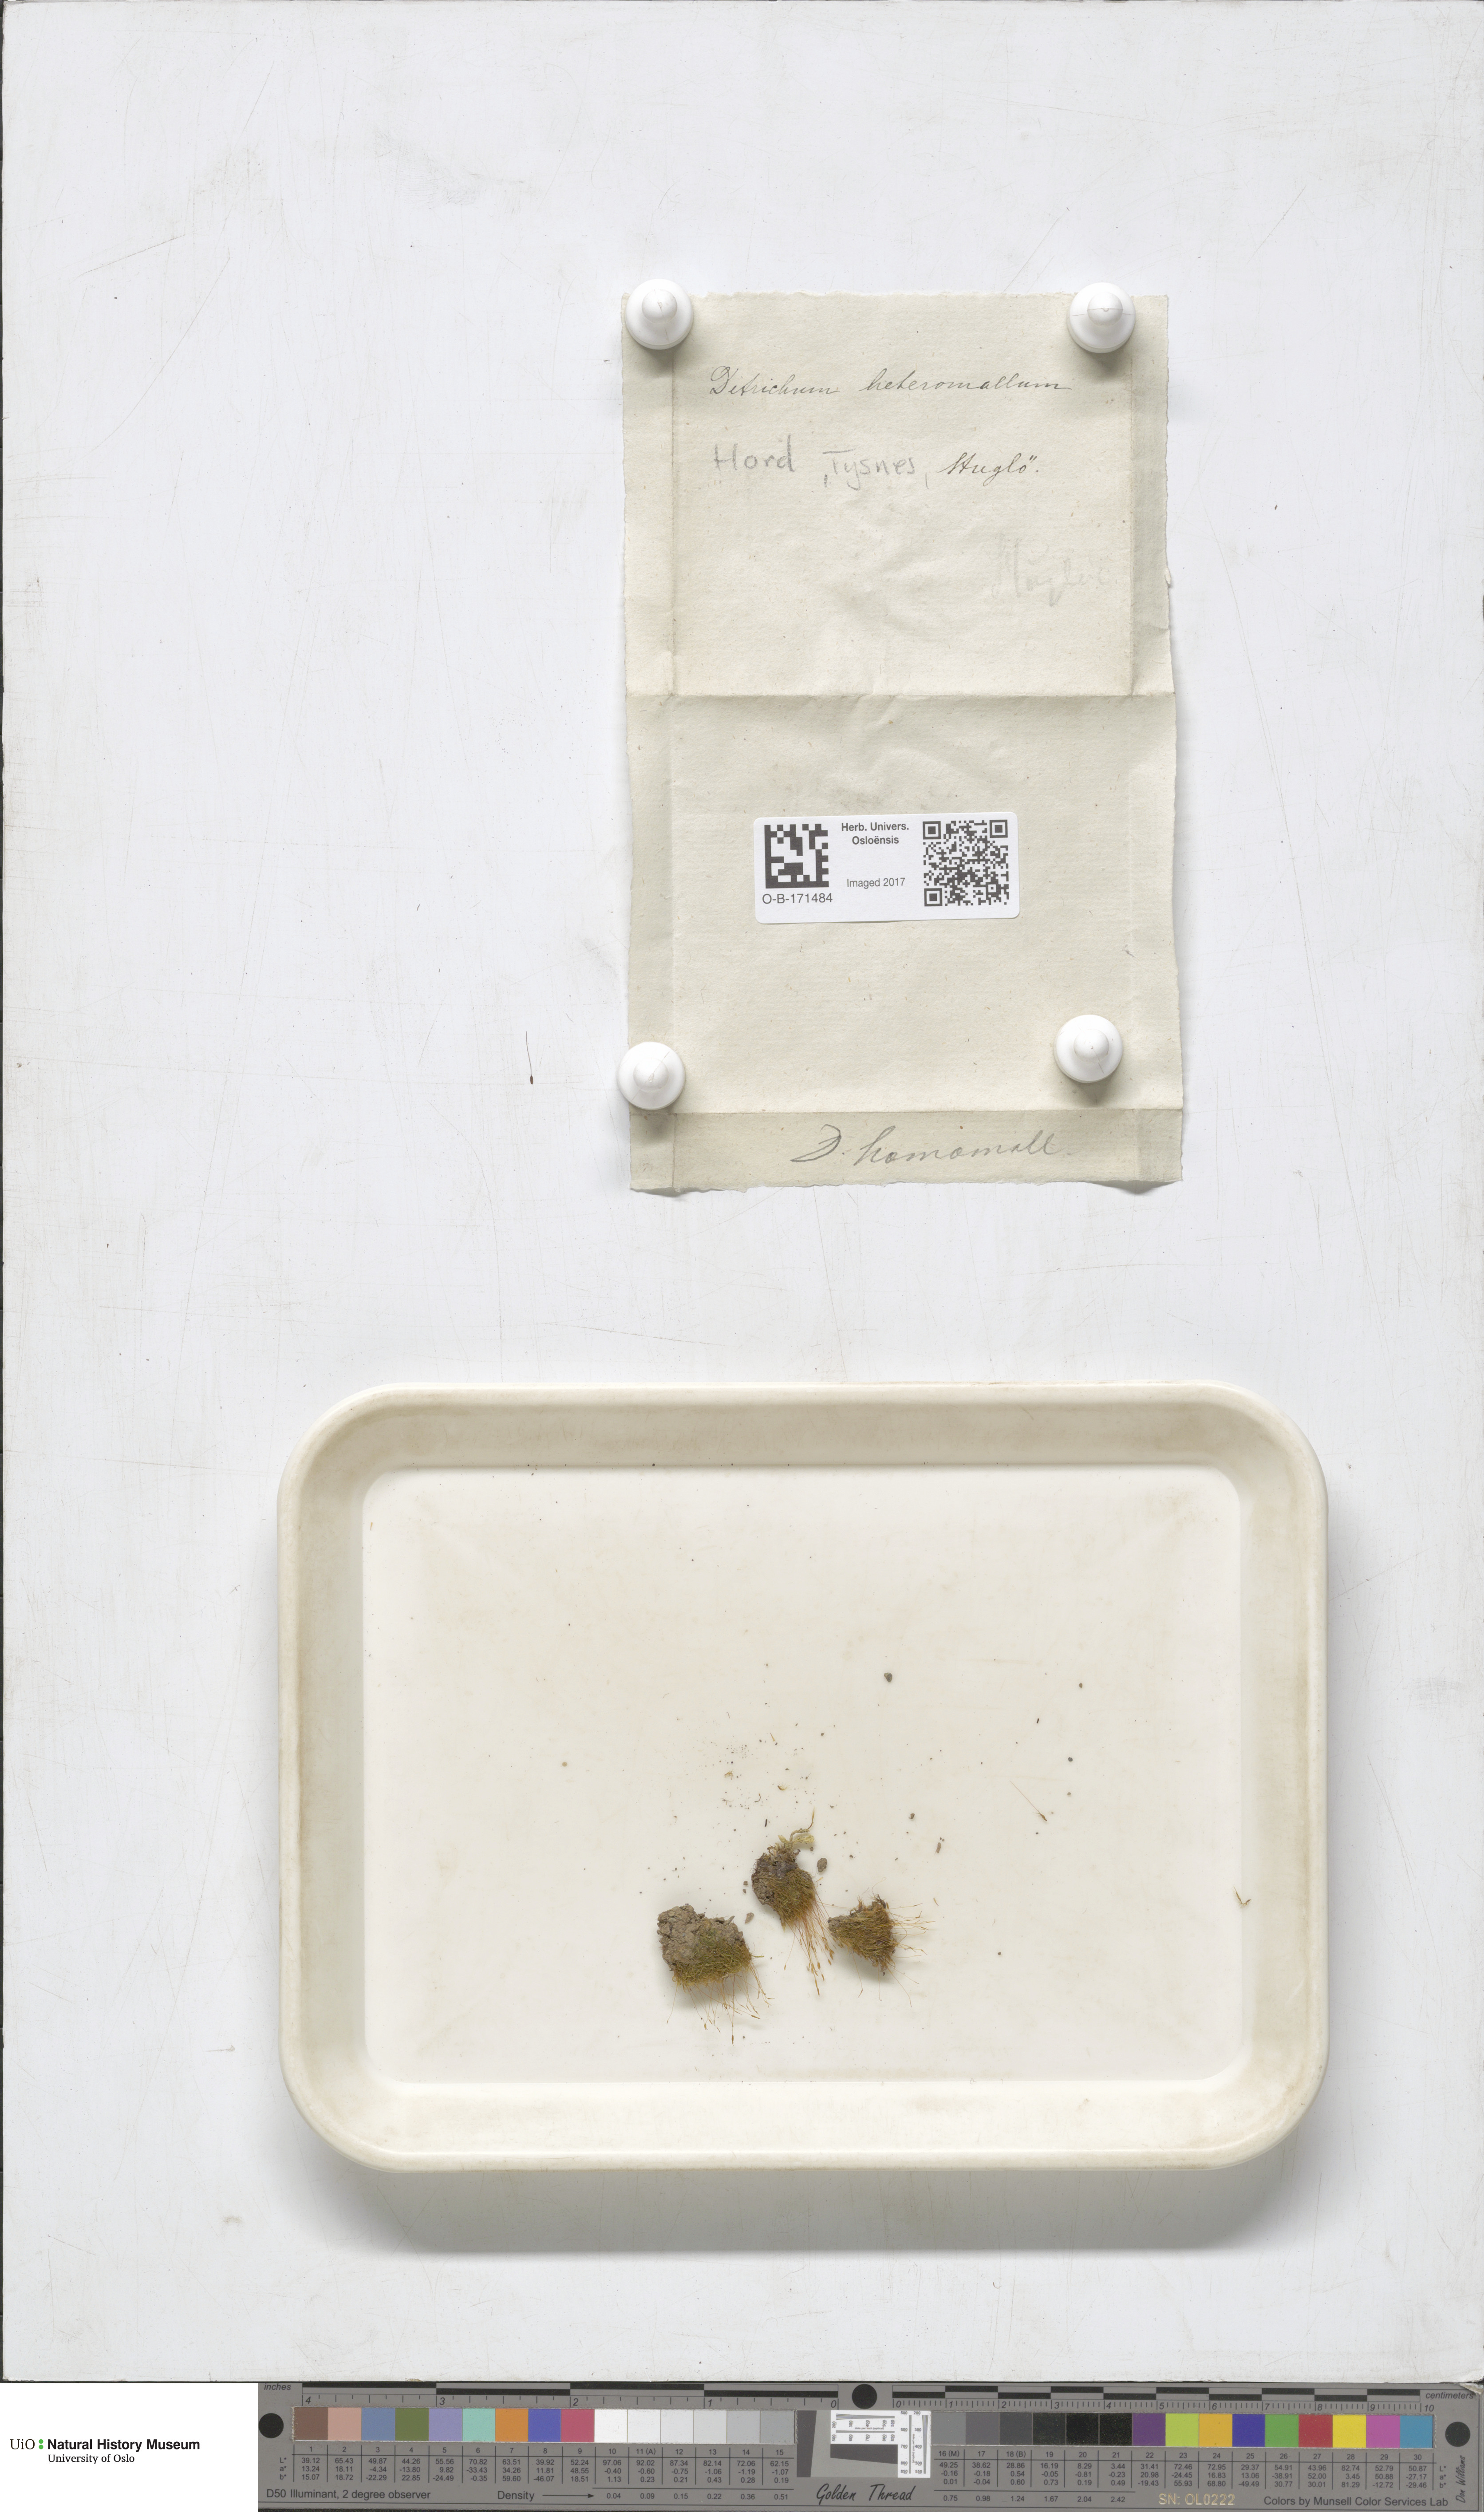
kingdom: Plantae
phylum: Bryophyta
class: Bryopsida
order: Dicranales
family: Ditrichaceae
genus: Ditrichum
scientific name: Ditrichum heteromallum
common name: Curve-leaved ditrichum
